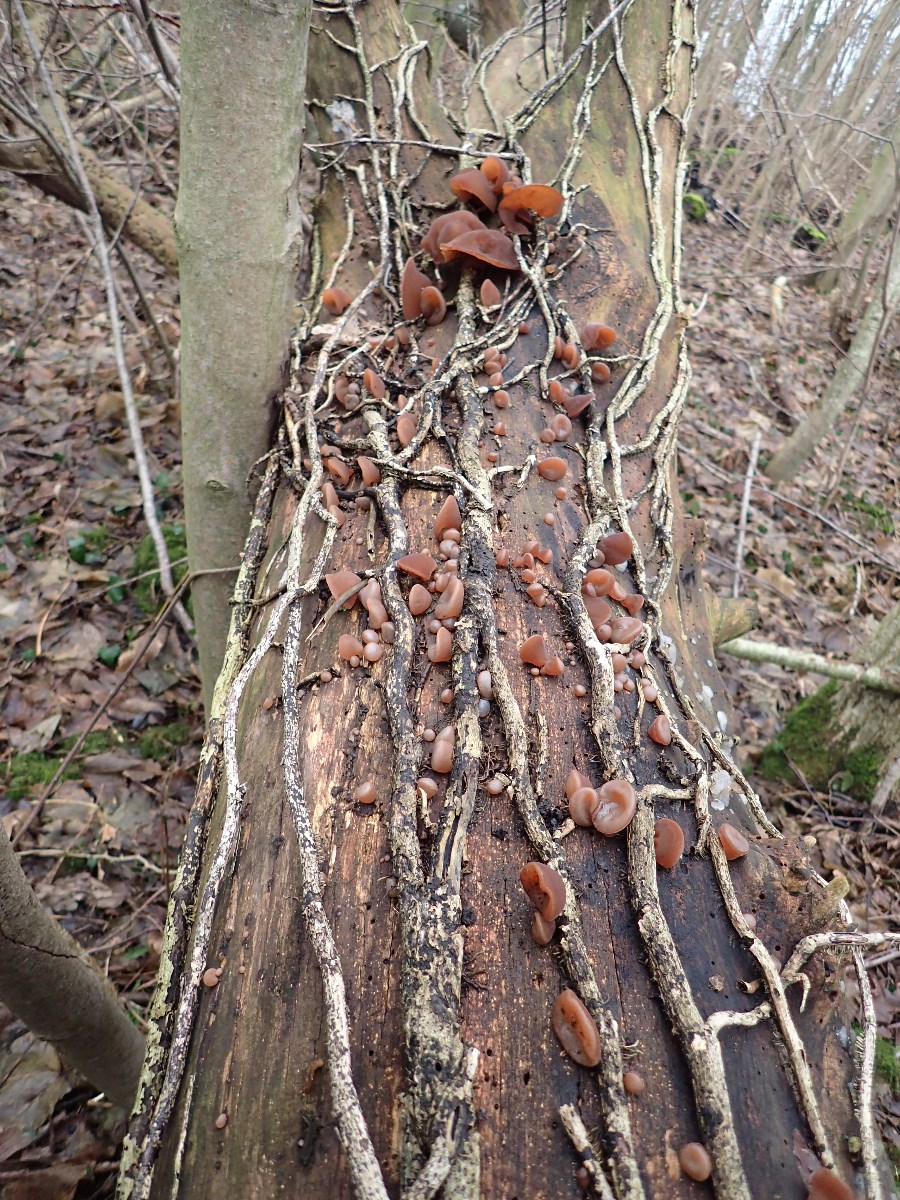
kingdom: Fungi
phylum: Basidiomycota
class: Agaricomycetes
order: Auriculariales
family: Auriculariaceae
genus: Auricularia
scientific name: Auricularia auricula-judae
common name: almindelig judasøre
